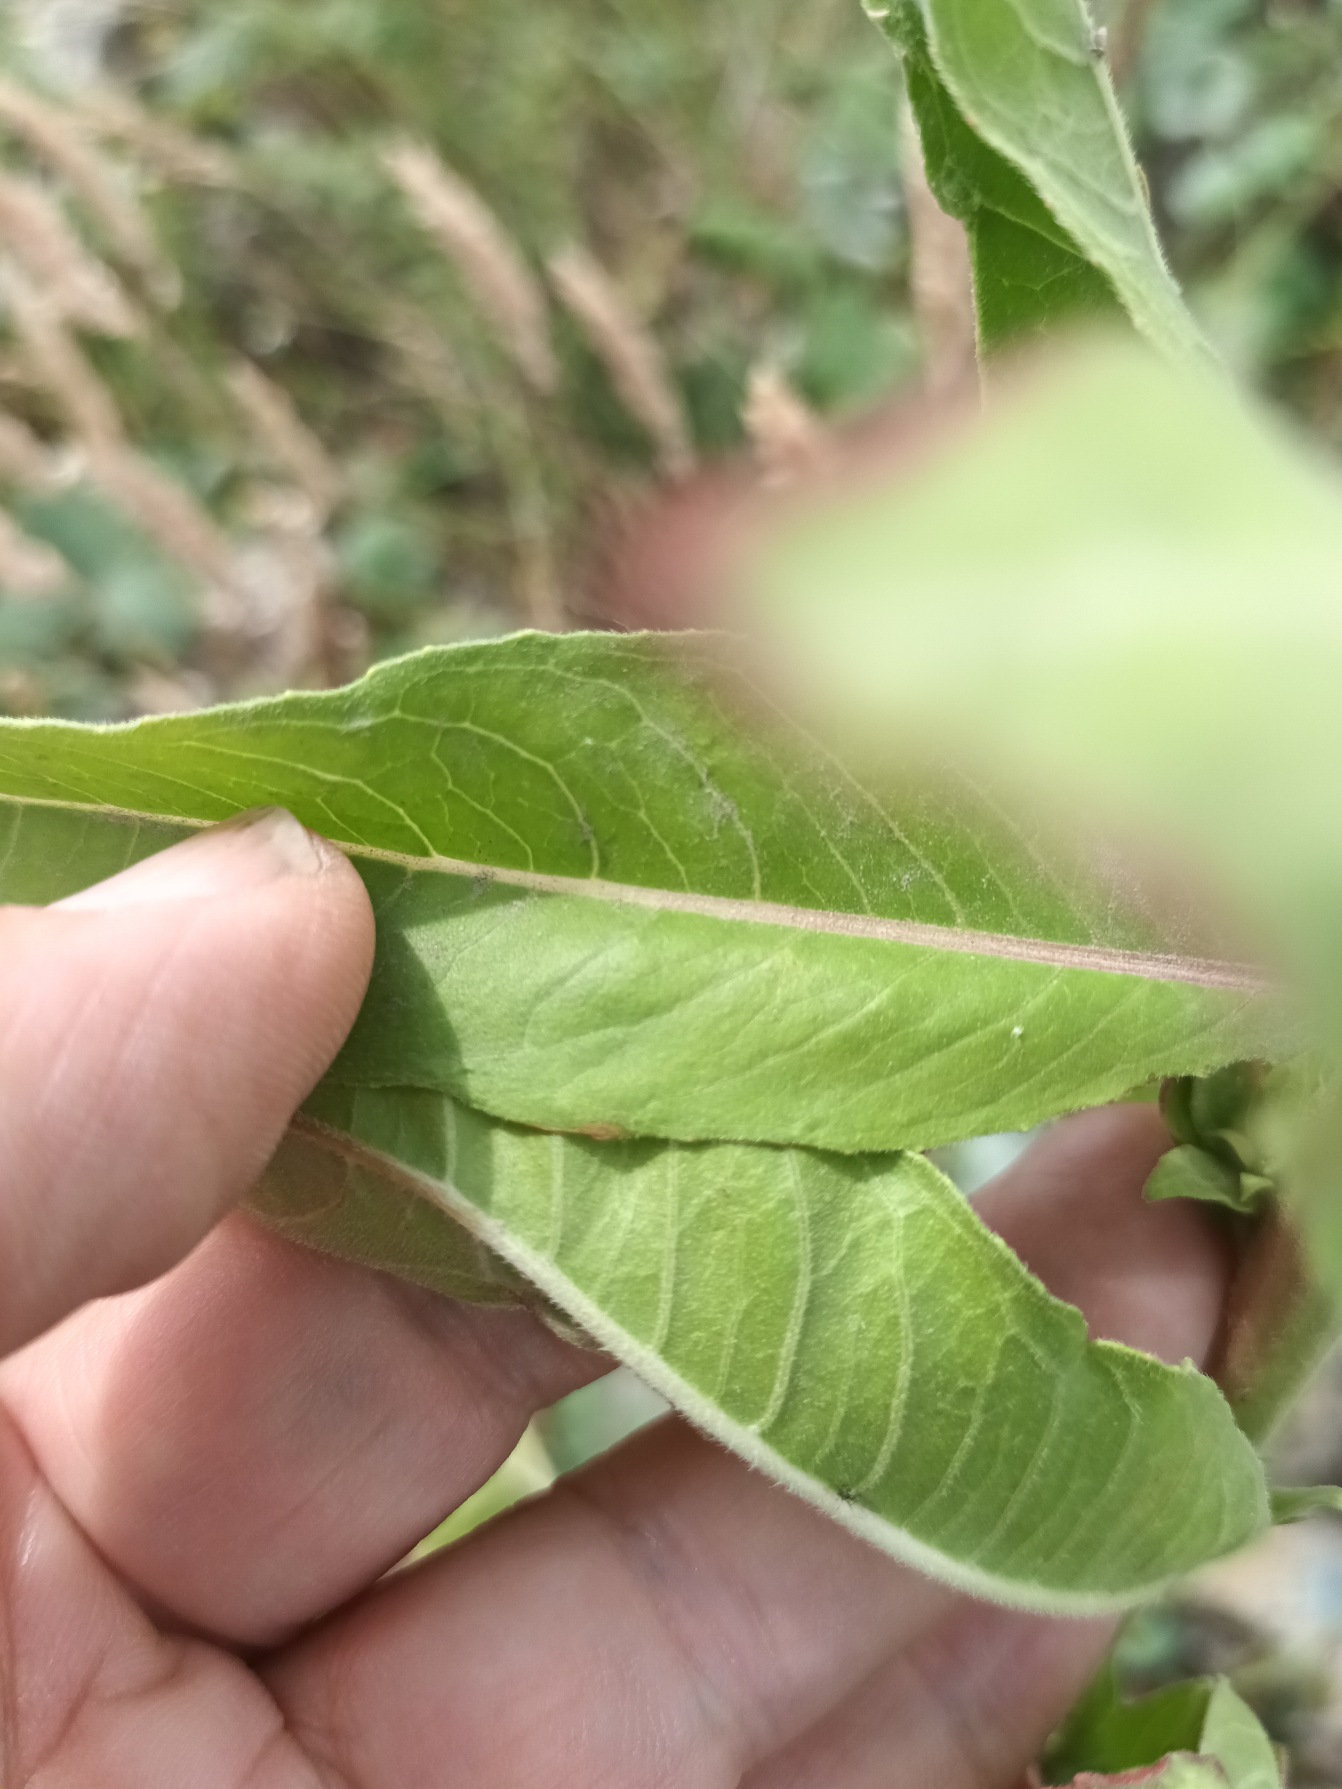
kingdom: Plantae
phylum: Tracheophyta
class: Magnoliopsida
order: Myrtales
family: Onagraceae
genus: Oenothera
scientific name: Oenothera casimiri
